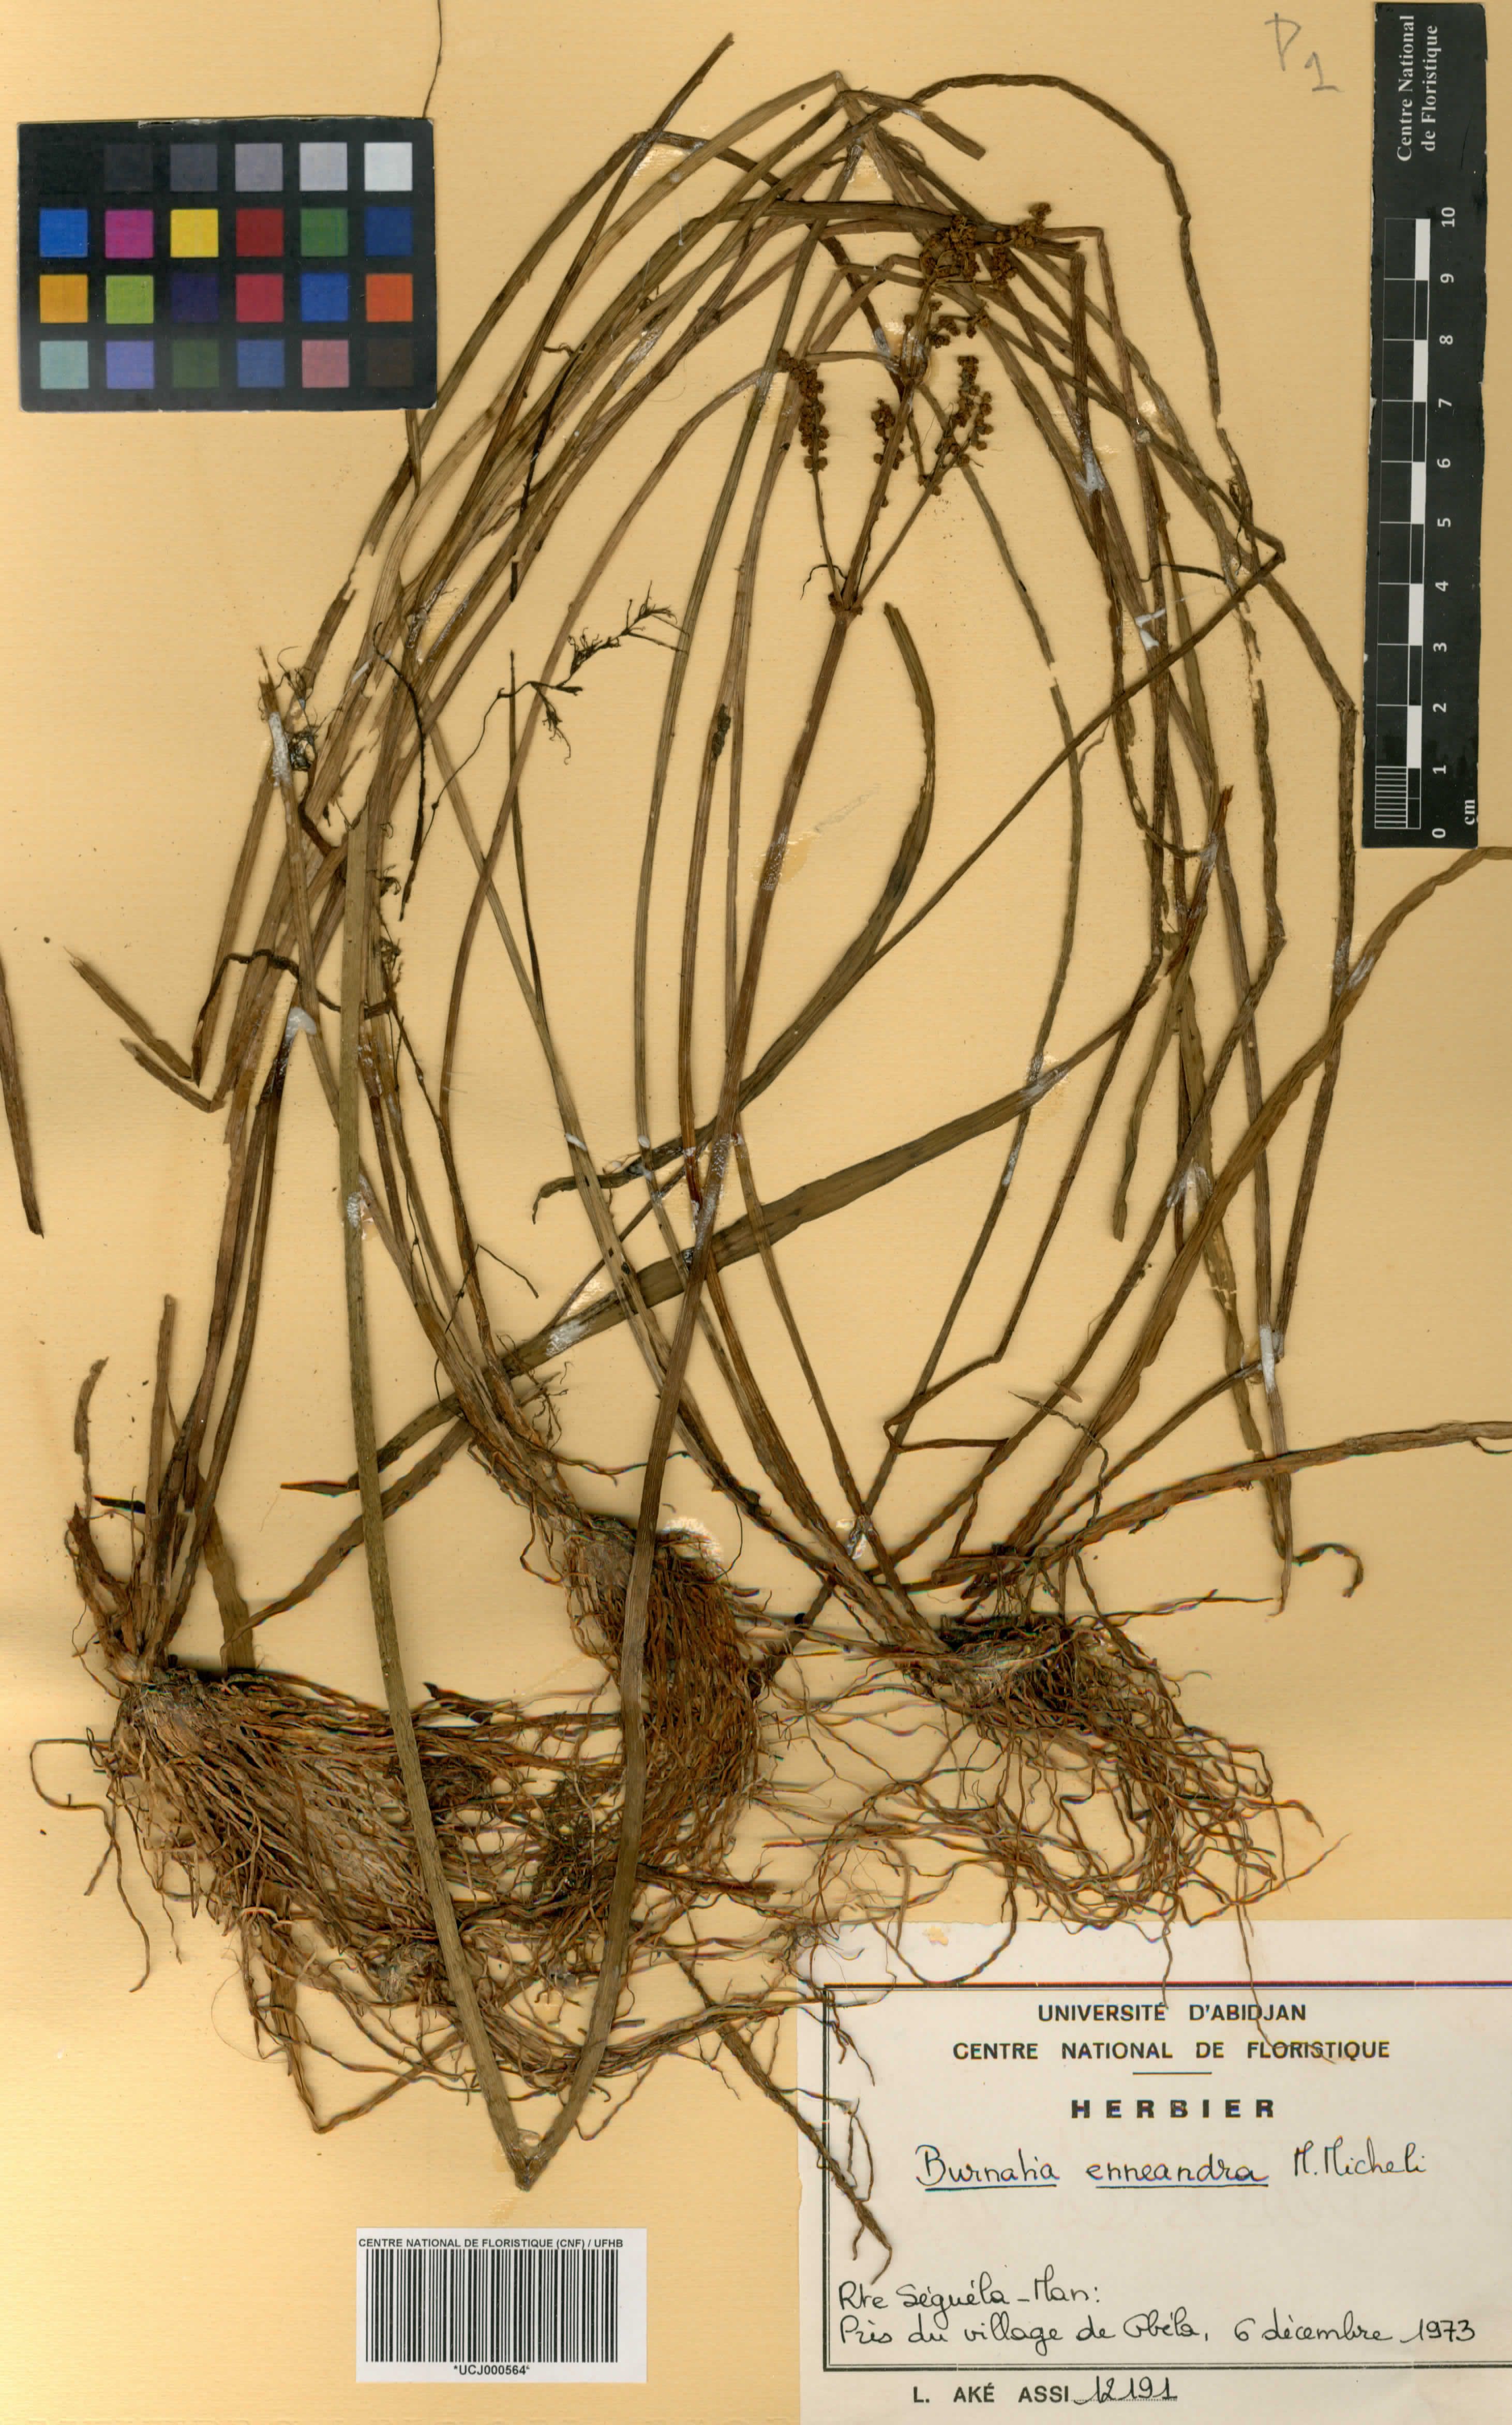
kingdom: Plantae
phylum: Tracheophyta
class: Liliopsida
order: Alismatales
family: Alismataceae
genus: Burnatia
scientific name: Burnatia enneandra
